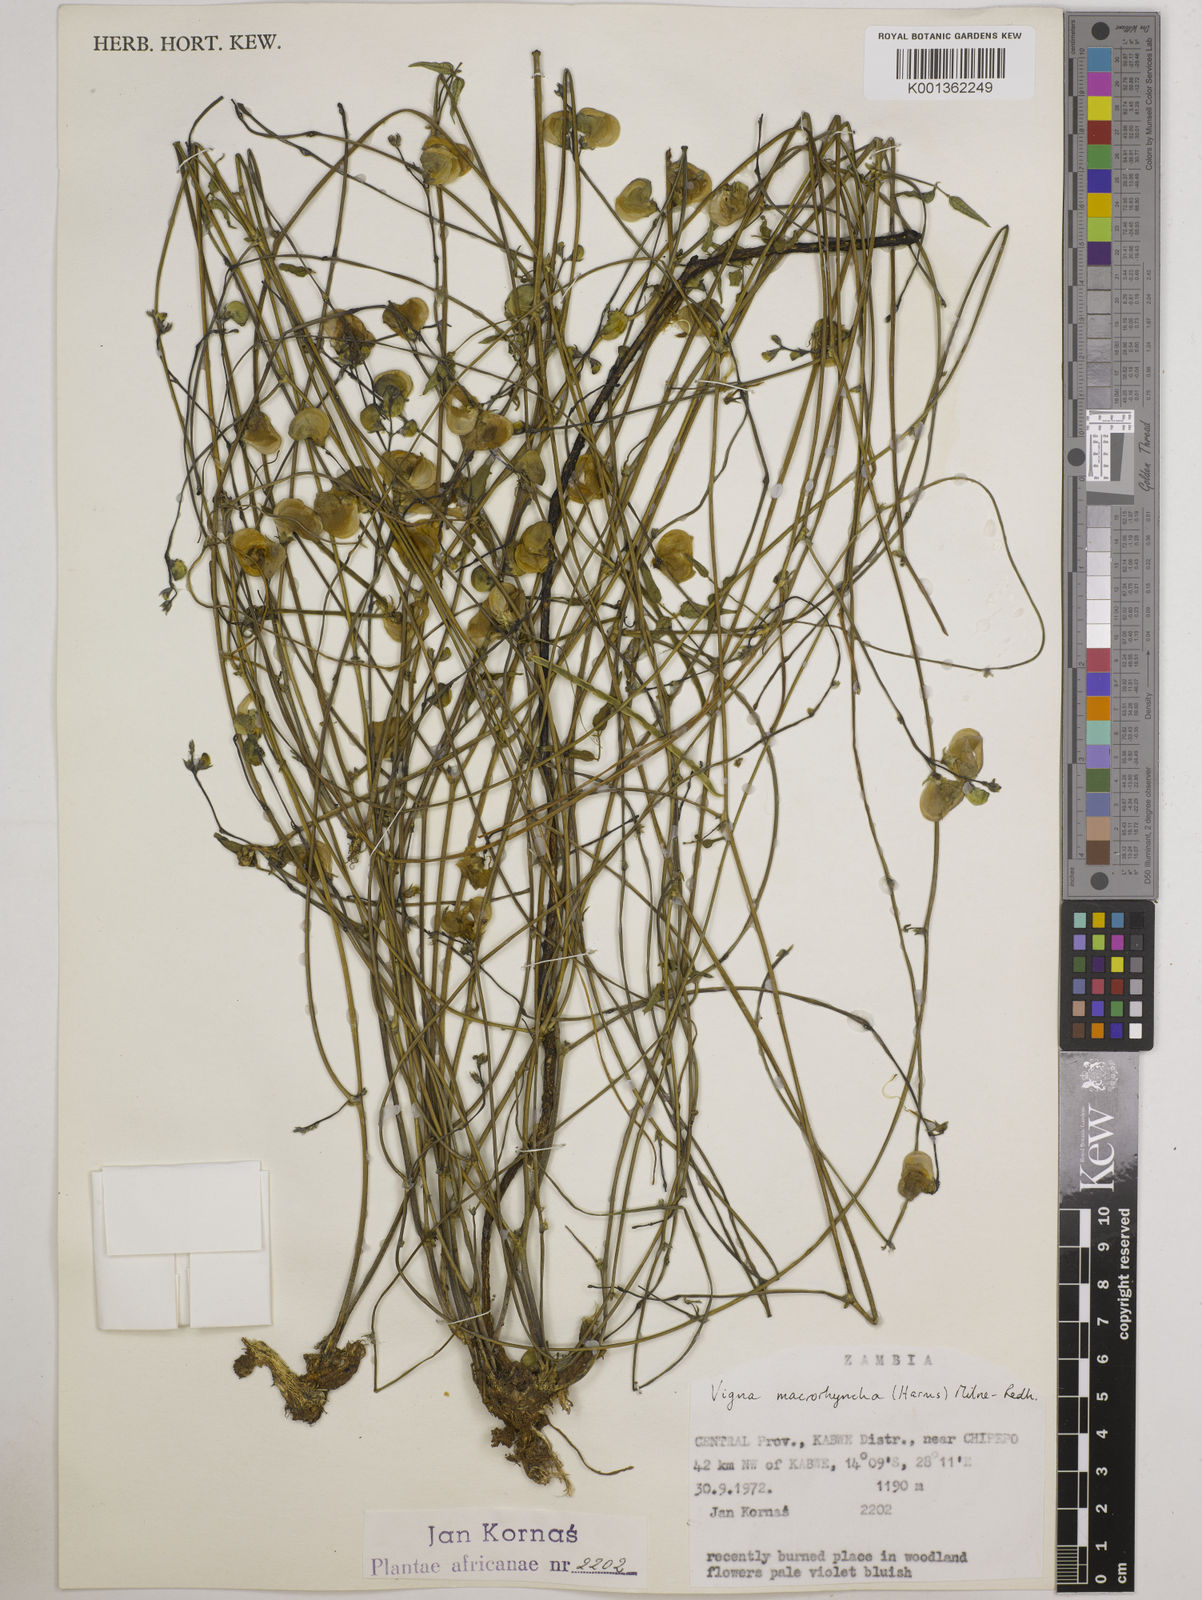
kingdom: Plantae
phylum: Tracheophyta
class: Magnoliopsida
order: Fabales
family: Fabaceae
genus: Wajira
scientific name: Wajira grahamiana
